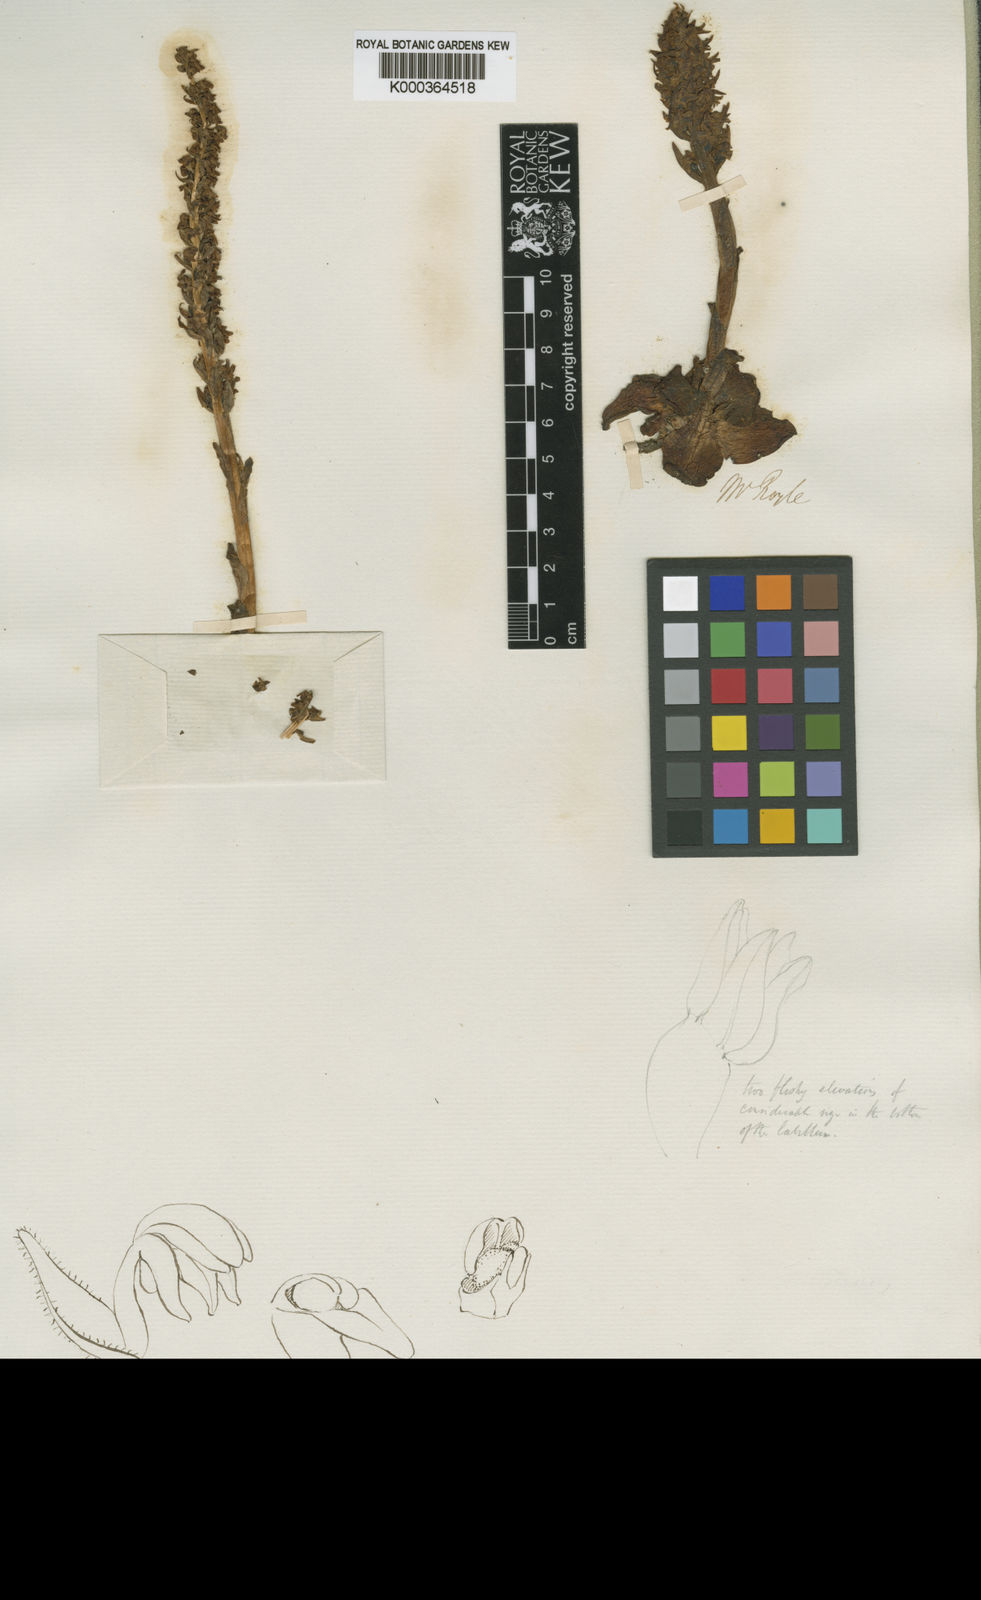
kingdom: Plantae
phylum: Tracheophyta
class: Liliopsida
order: Asparagales
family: Orchidaceae
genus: Goodyera
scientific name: Goodyera fusca
